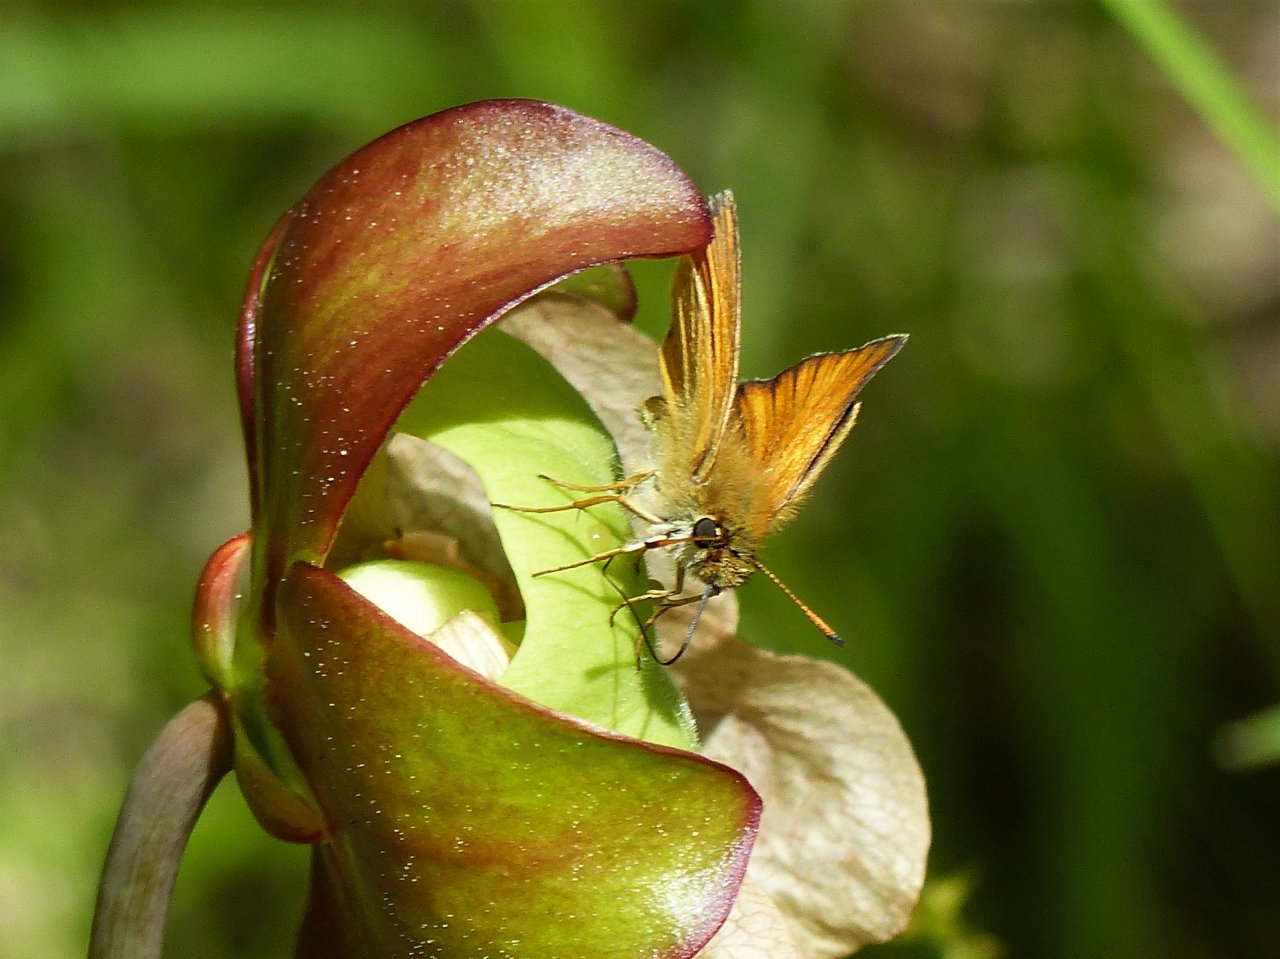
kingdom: Animalia
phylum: Arthropoda
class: Insecta
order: Lepidoptera
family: Hesperiidae
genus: Thymelicus
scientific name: Thymelicus lineola
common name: European Skipper
